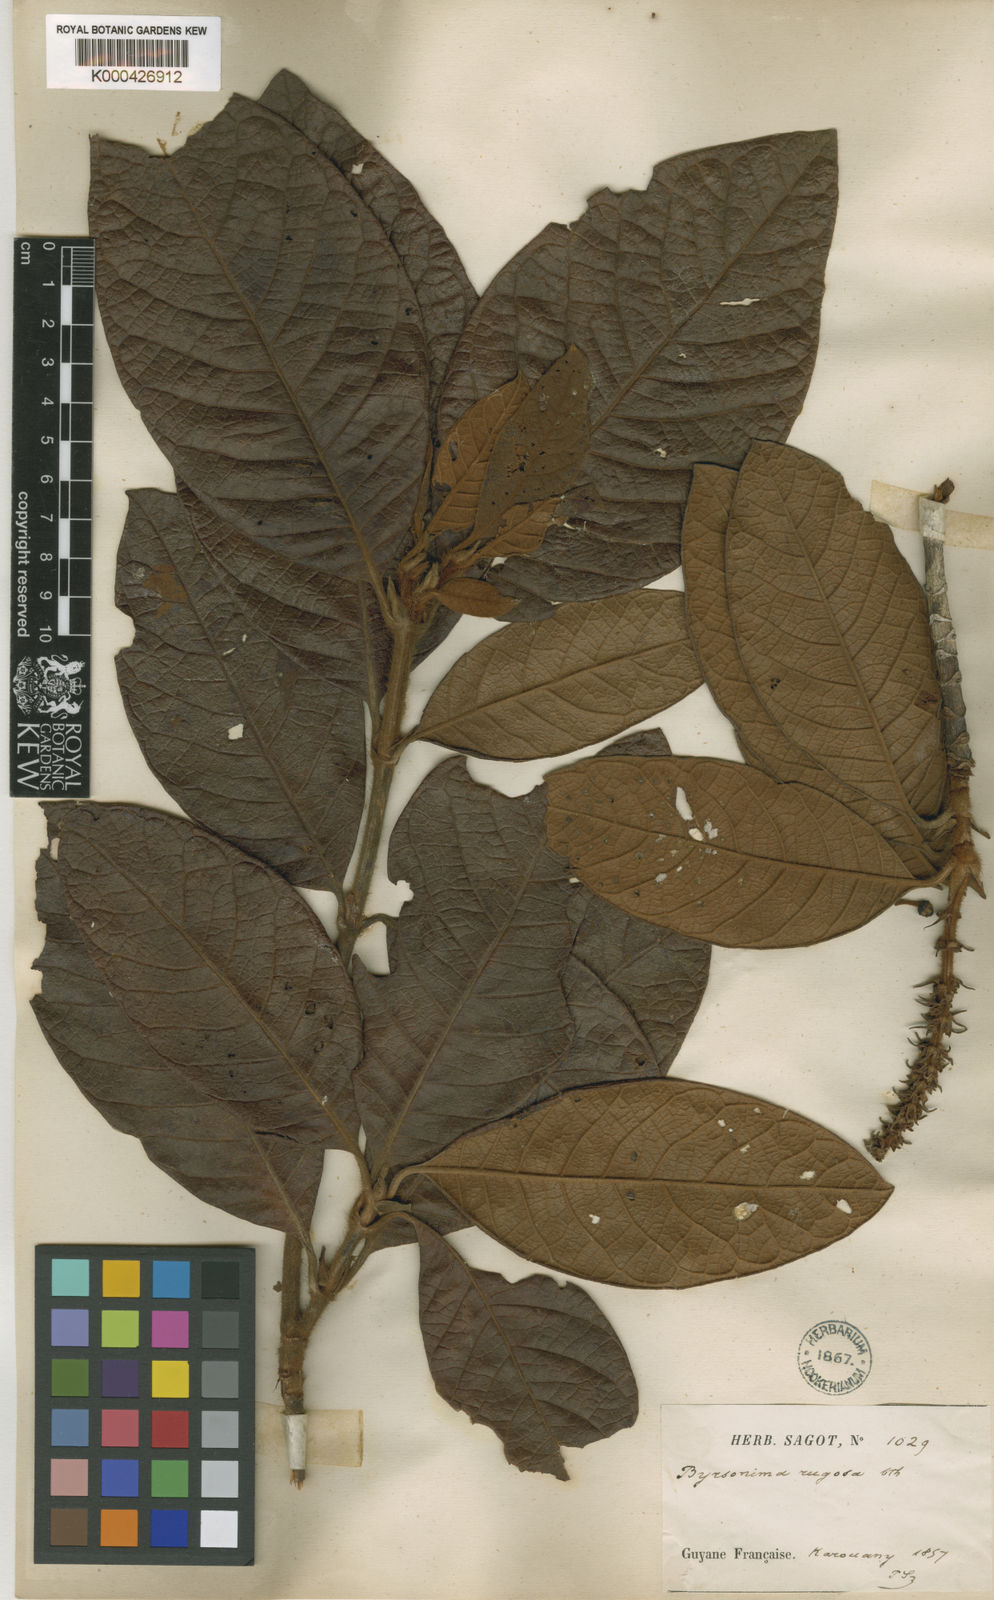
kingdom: Plantae
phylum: Tracheophyta
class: Magnoliopsida
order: Malpighiales
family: Malpighiaceae
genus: Byrsonima
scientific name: Byrsonima stipulacea
